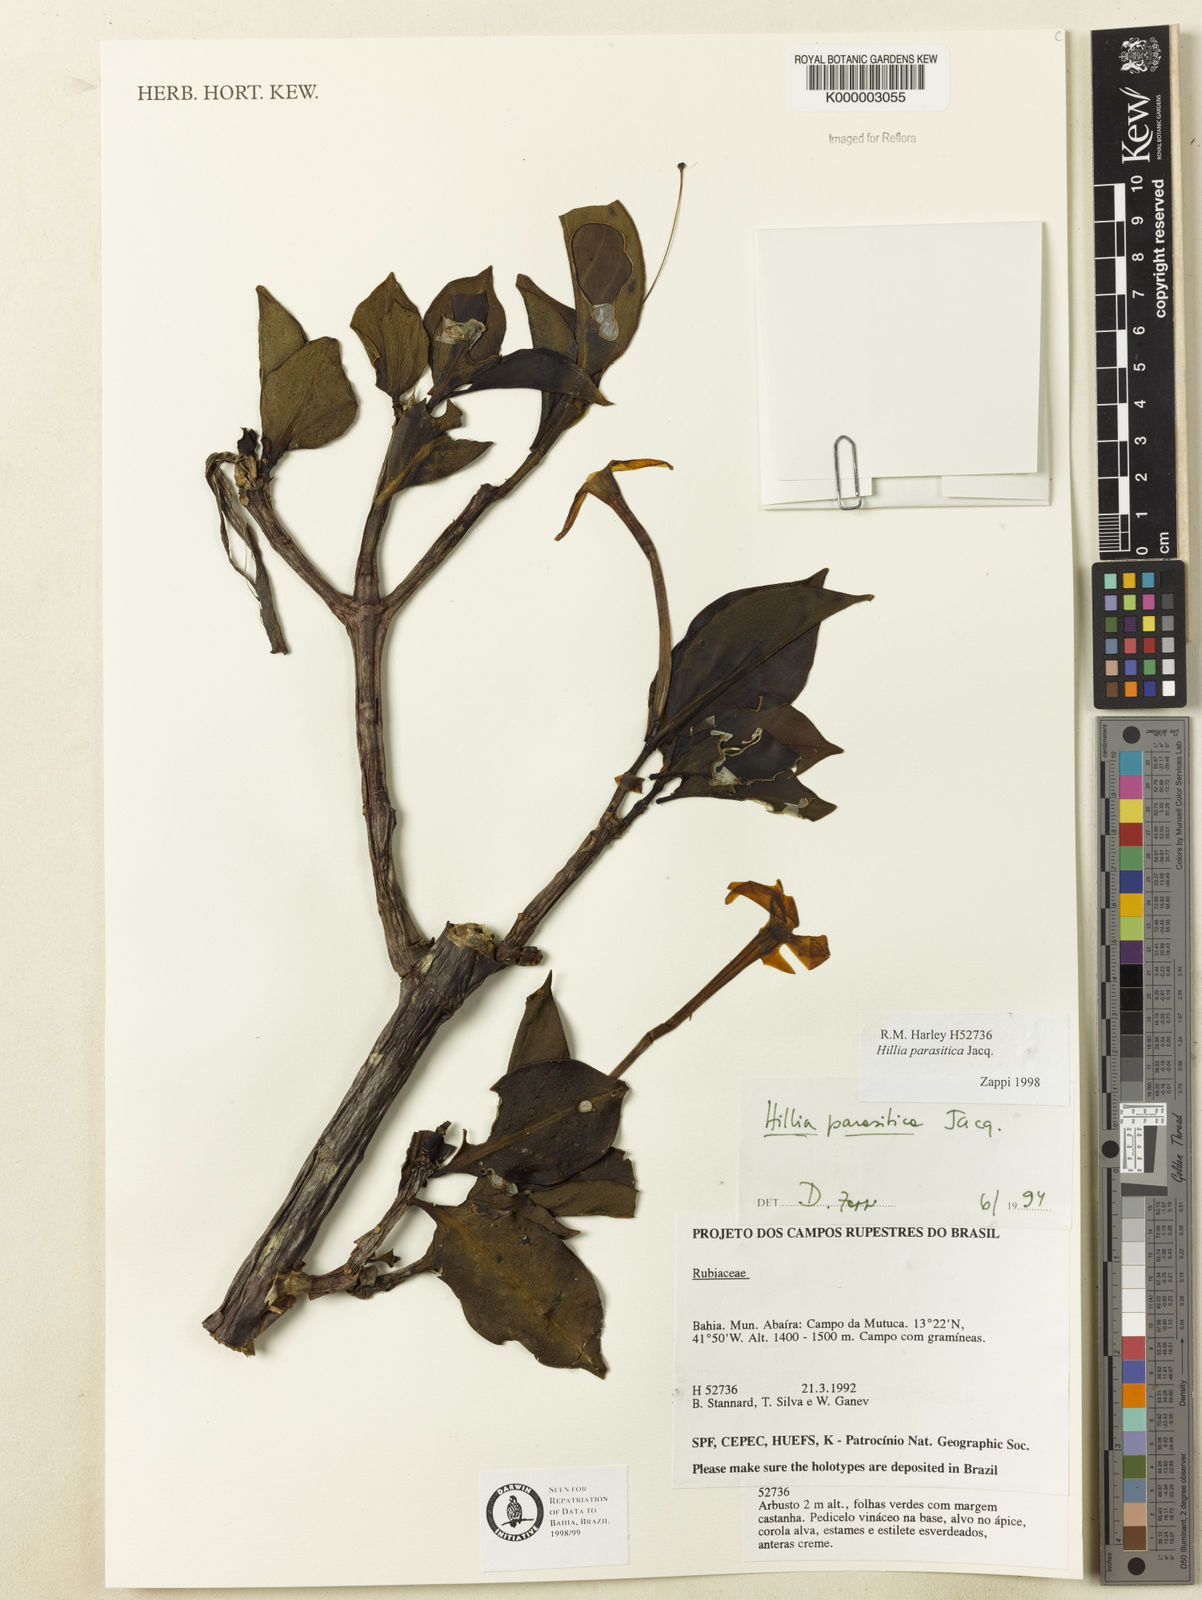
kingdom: Plantae
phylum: Tracheophyta
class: Magnoliopsida
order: Gentianales
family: Rubiaceae
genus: Hillia
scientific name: Hillia parasitica
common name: Morning star
